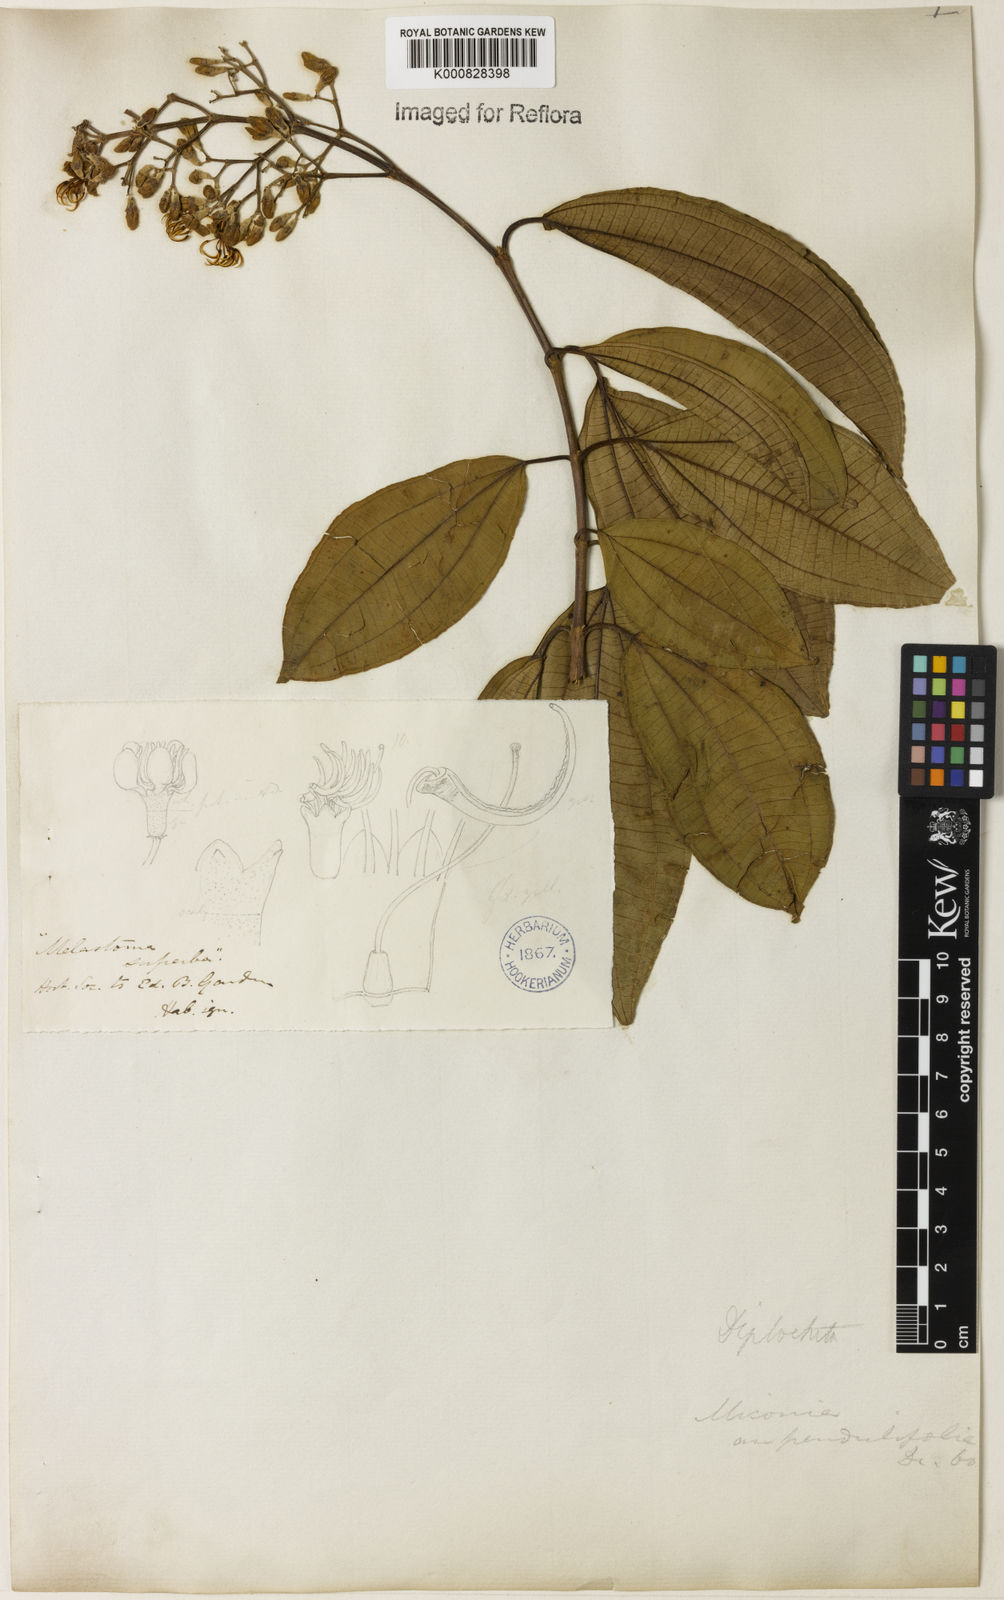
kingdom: Plantae
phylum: Tracheophyta
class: Magnoliopsida
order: Myrtales
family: Melastomataceae
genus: Miconia
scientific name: Miconia staminea
